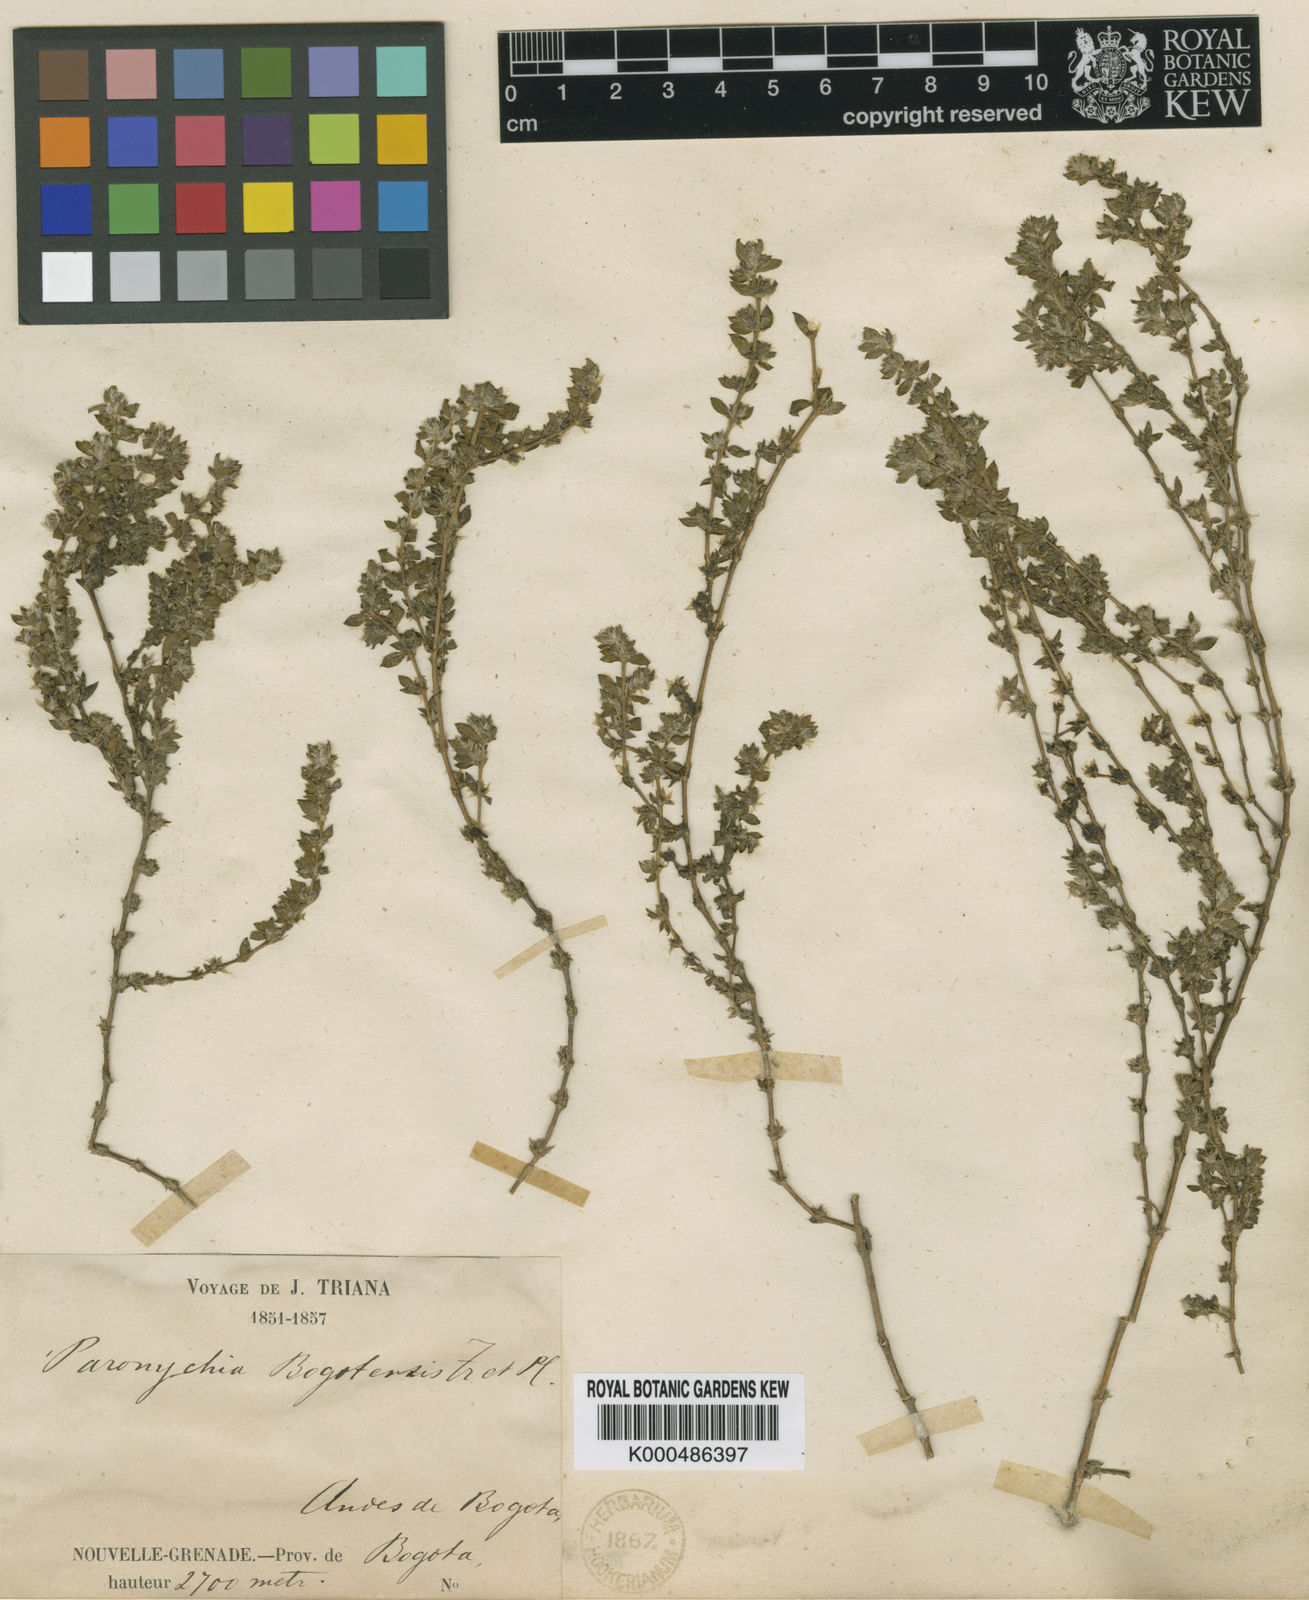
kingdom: Plantae
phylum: Tracheophyta
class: Magnoliopsida
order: Caryophyllales
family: Caryophyllaceae
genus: Paronychia
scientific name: Paronychia bogotensis
